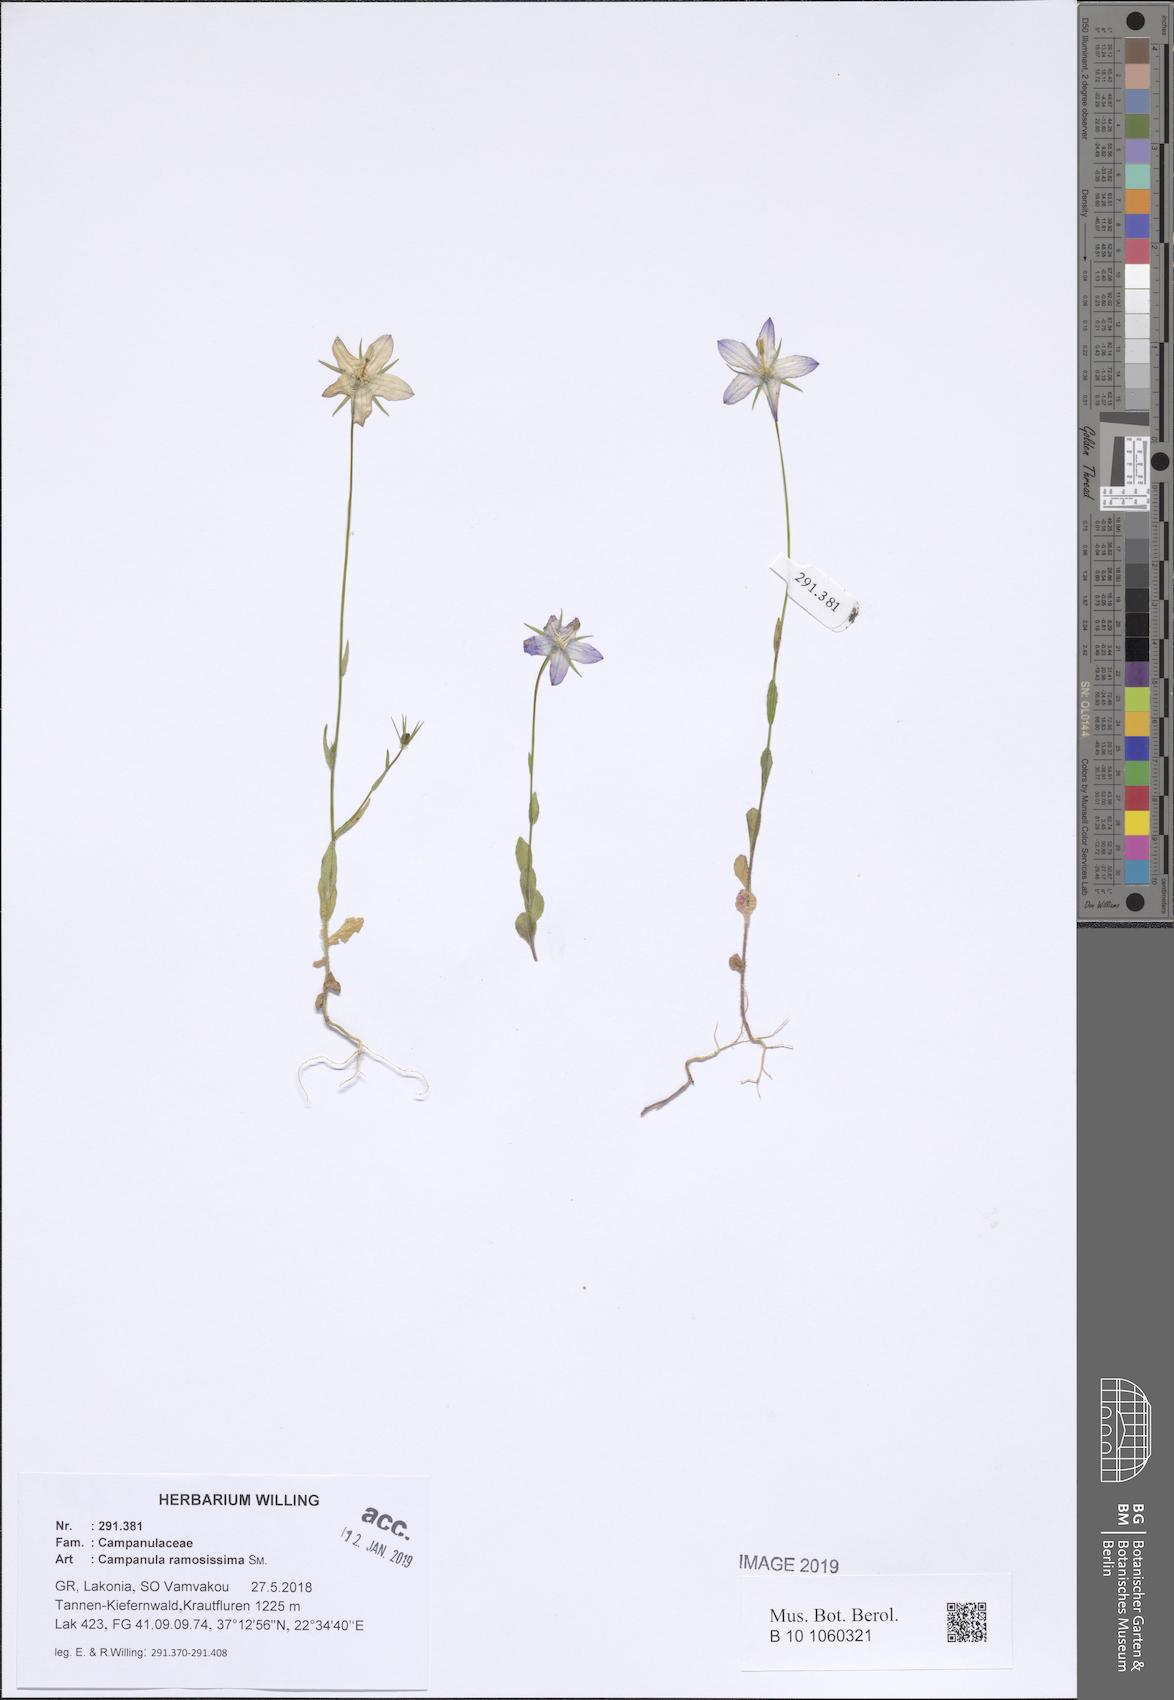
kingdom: Plantae
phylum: Tracheophyta
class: Magnoliopsida
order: Asterales
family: Campanulaceae
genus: Campanula
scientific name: Campanula ramosissima
